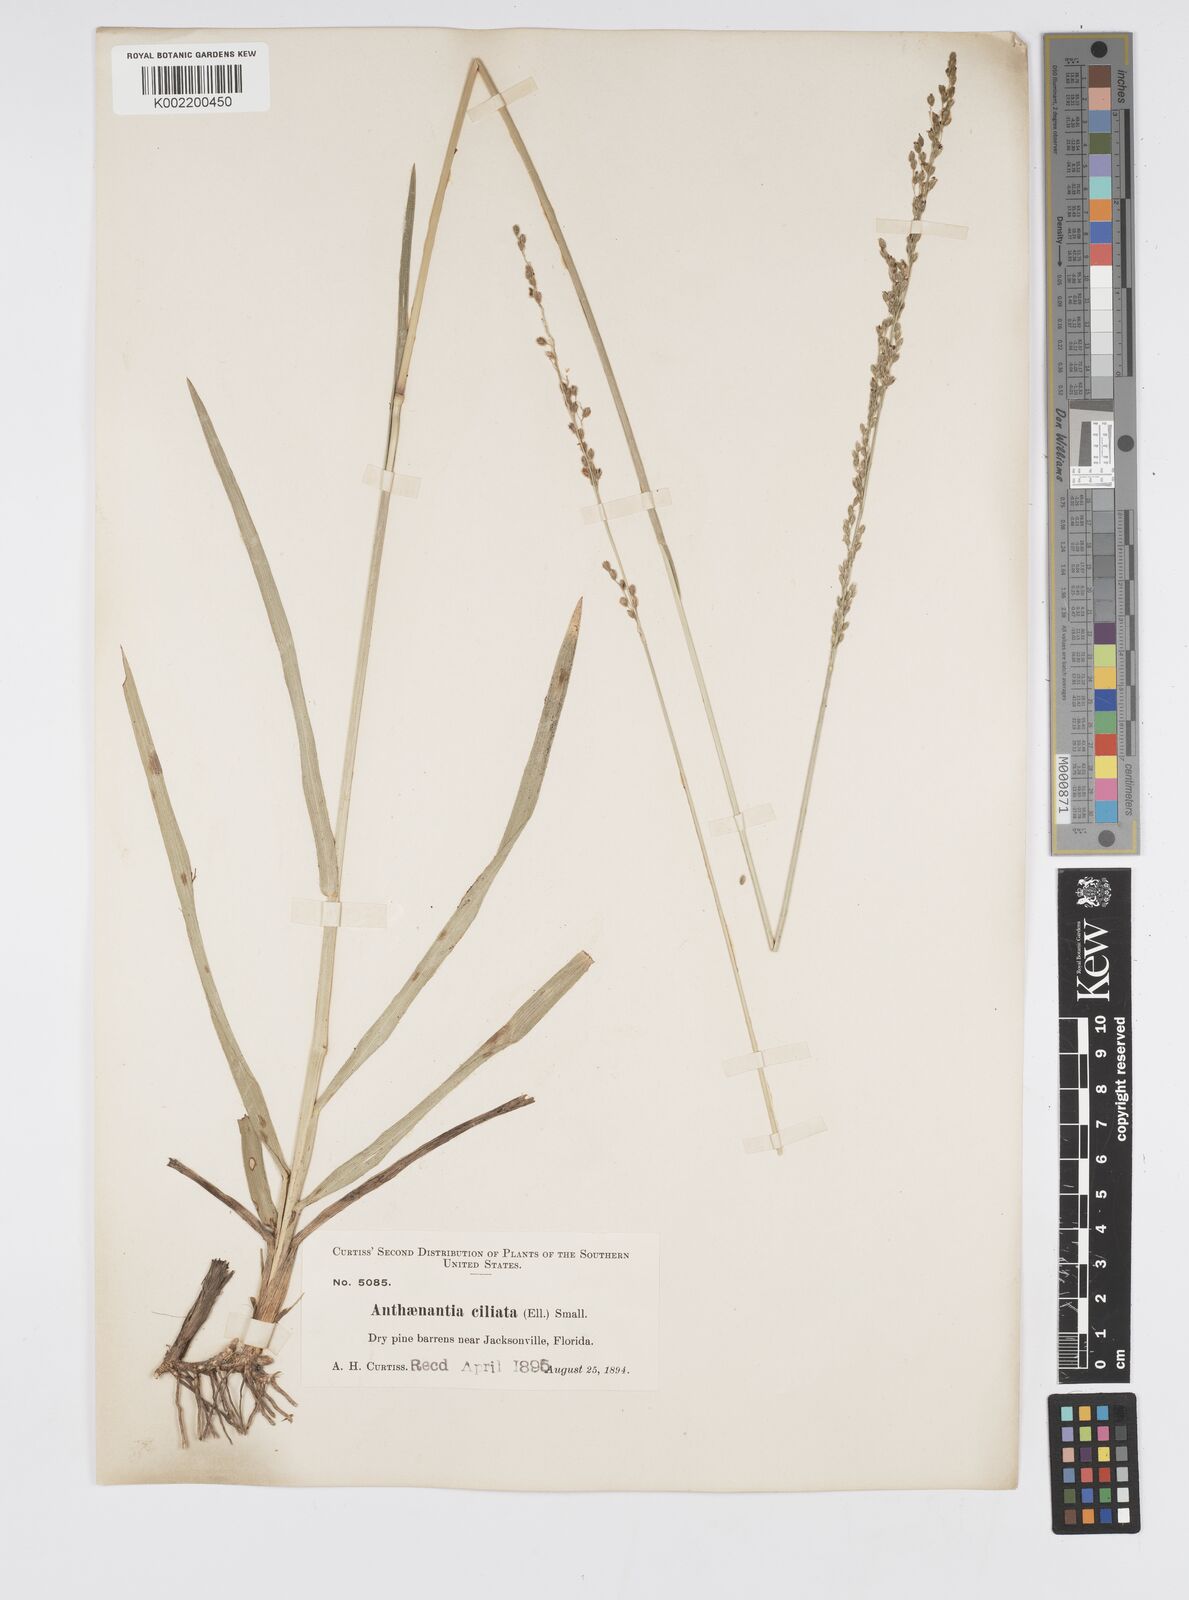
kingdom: Plantae
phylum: Tracheophyta
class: Liliopsida
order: Poales
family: Poaceae
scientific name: Poaceae
